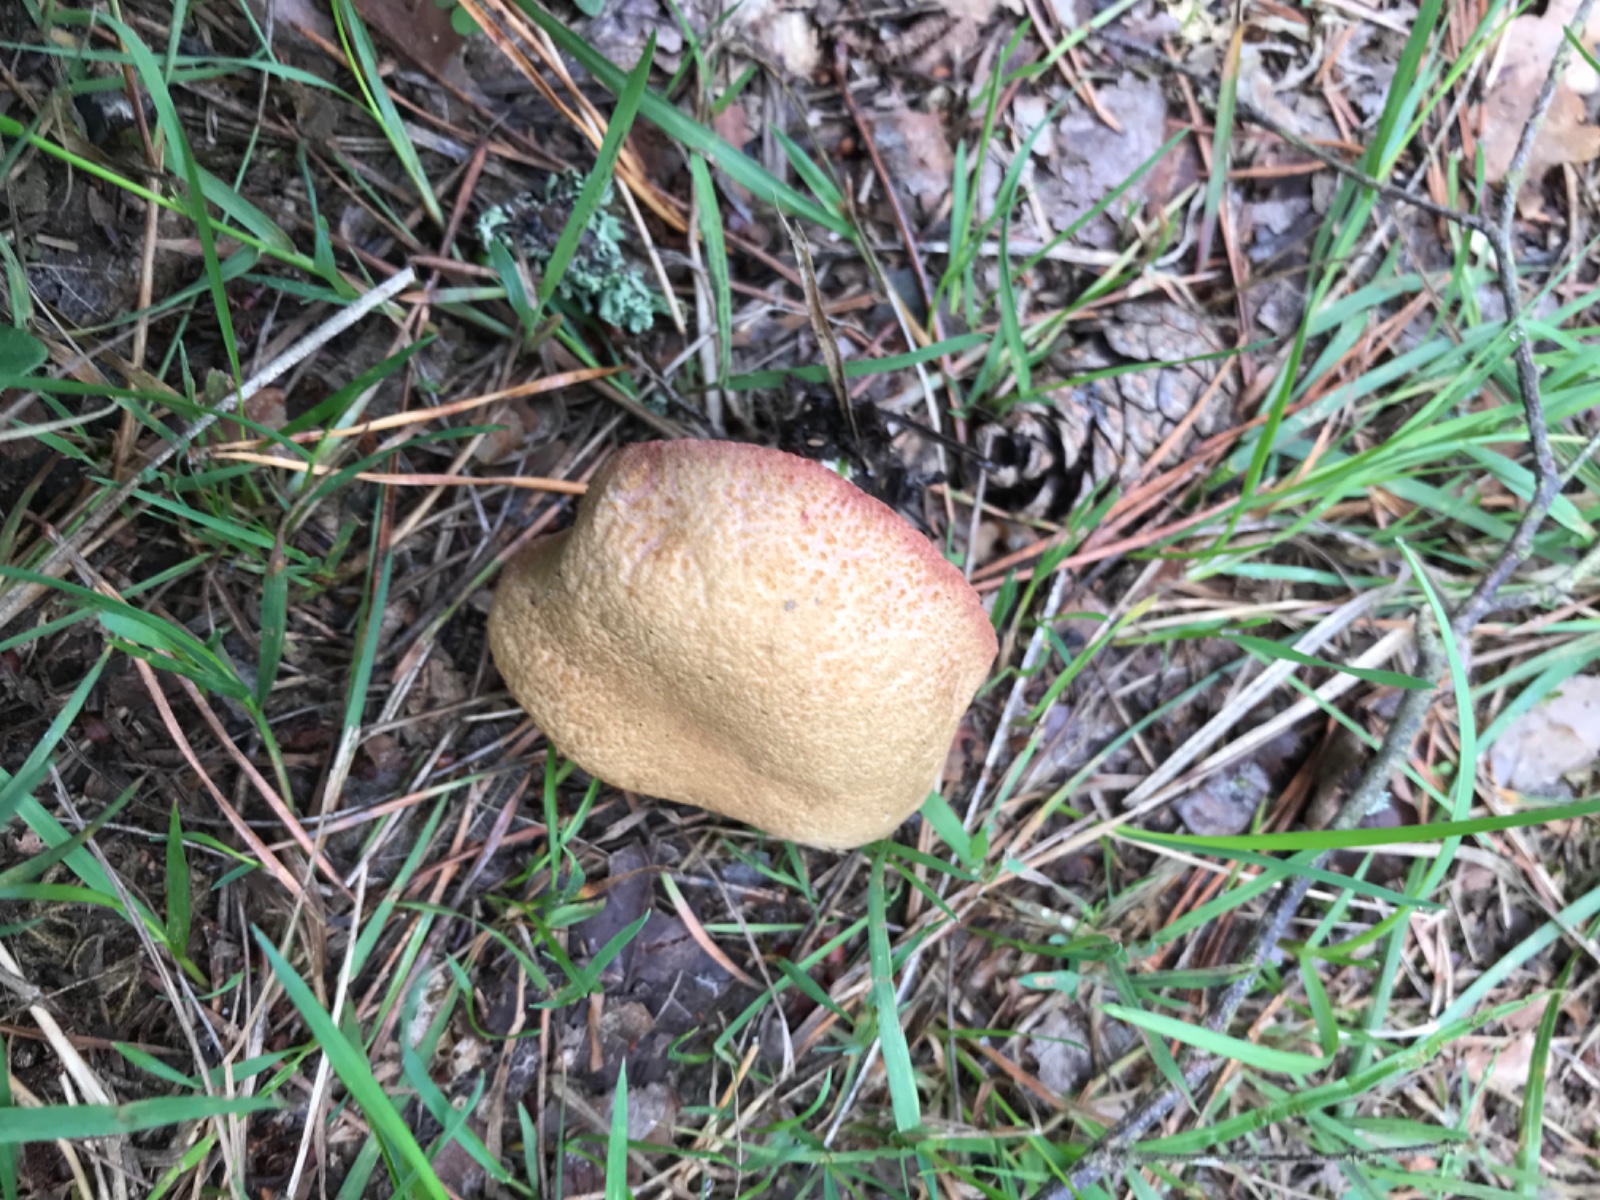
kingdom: Fungi
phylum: Basidiomycota
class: Agaricomycetes
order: Boletales
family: Boletaceae
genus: Xerocomellus
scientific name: Xerocomellus
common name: dværgrørhat
